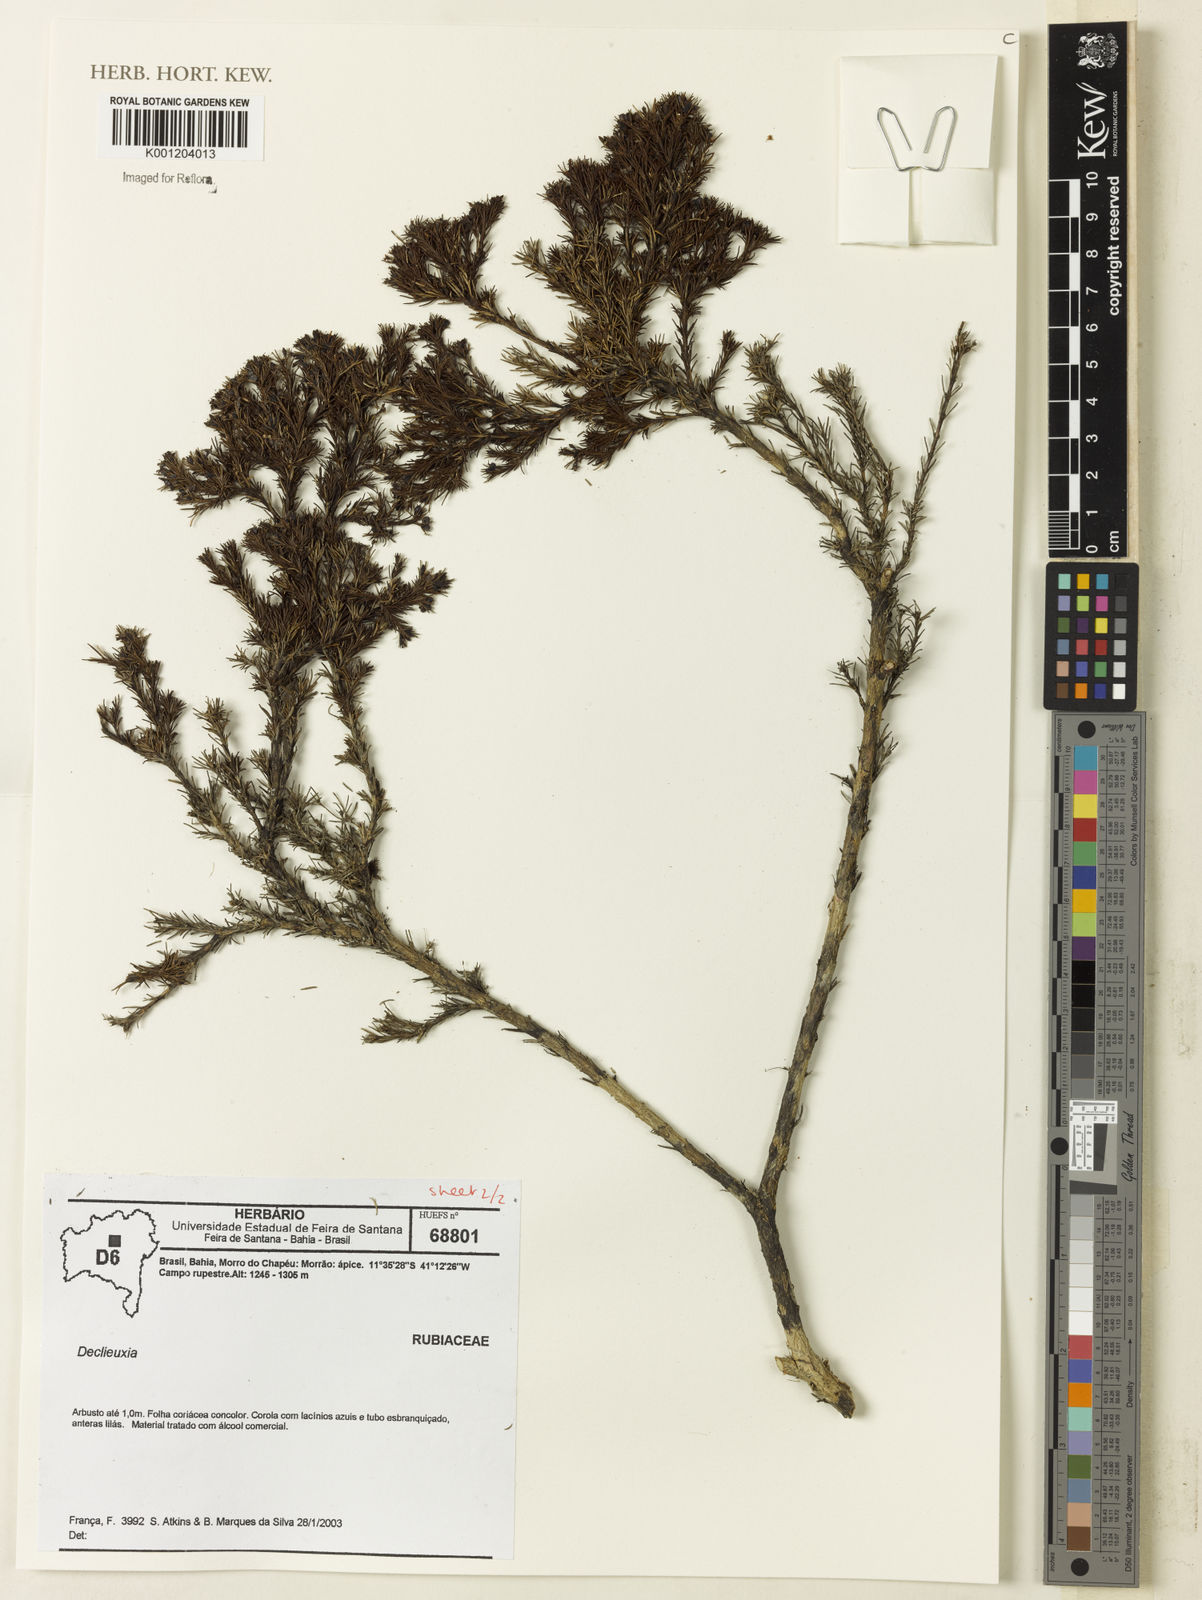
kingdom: Plantae
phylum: Tracheophyta
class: Magnoliopsida
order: Gentianales
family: Rubiaceae
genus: Declieuxia
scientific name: Declieuxia
